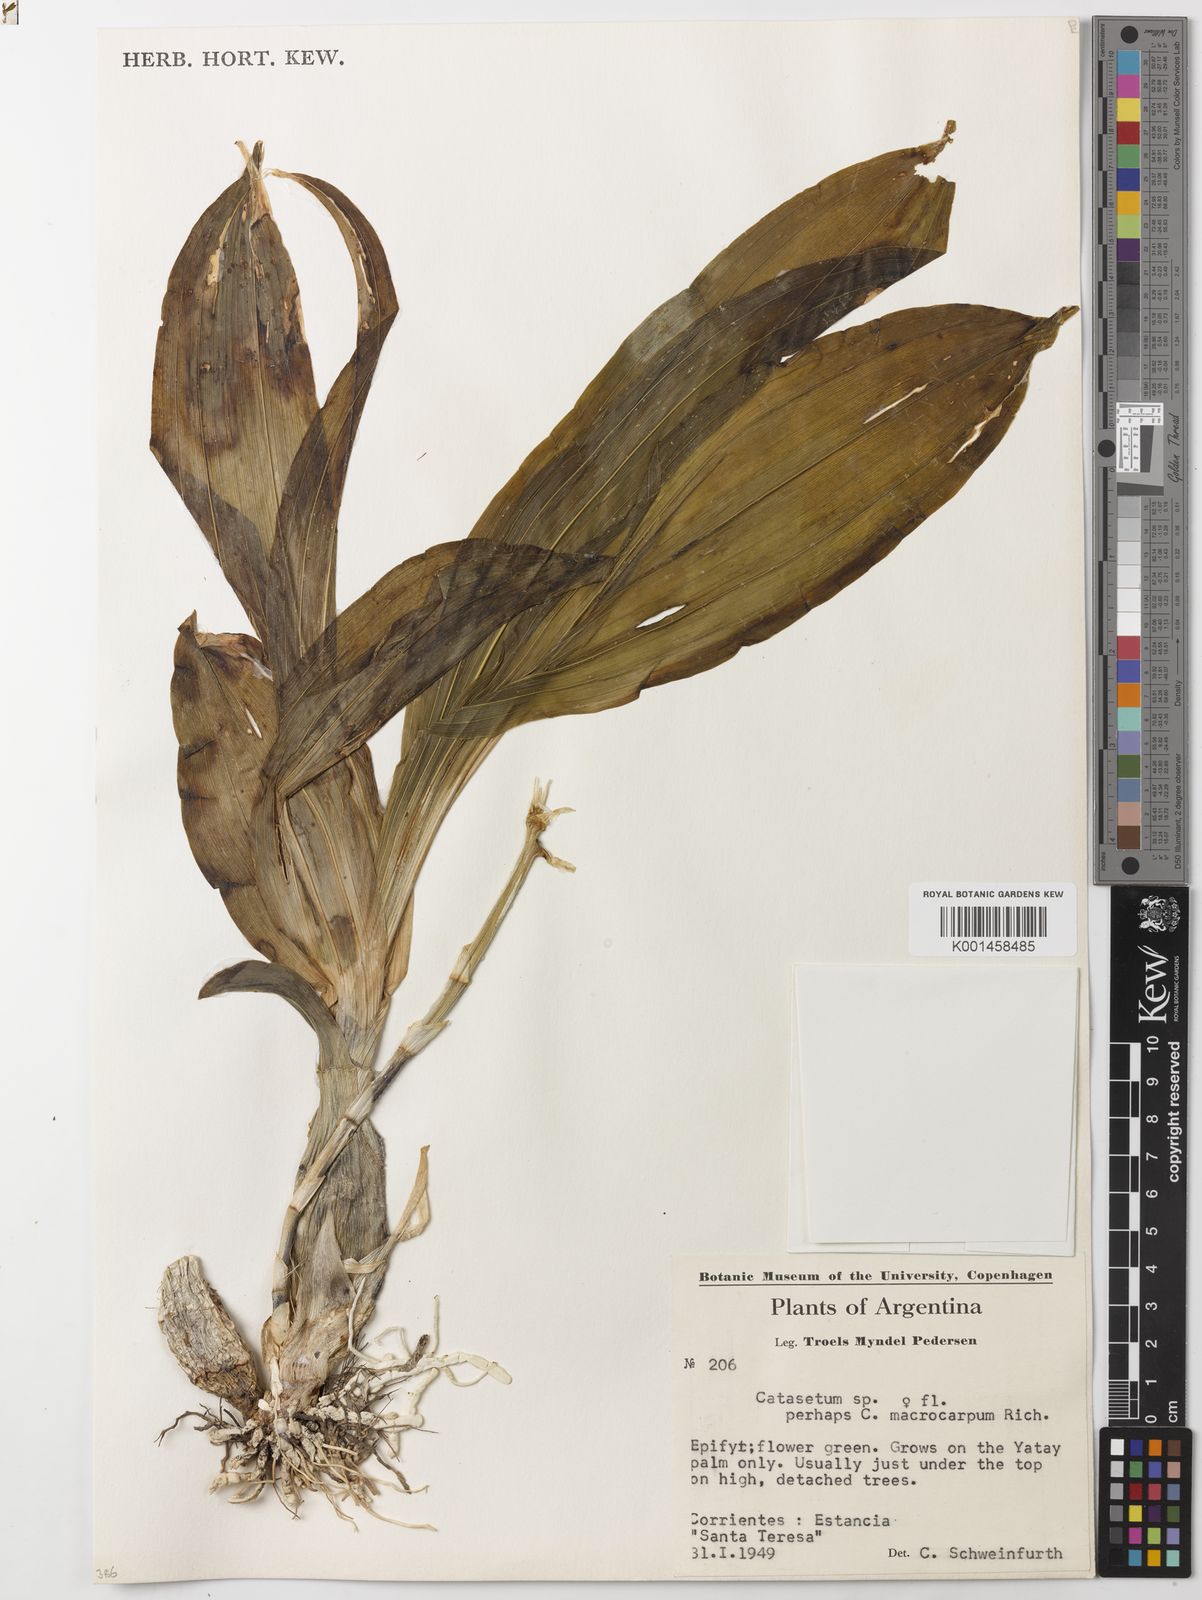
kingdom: Plantae
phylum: Tracheophyta
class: Liliopsida
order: Asparagales
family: Orchidaceae
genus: Catasetum
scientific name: Catasetum macrocarpum
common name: Jumping orchid
